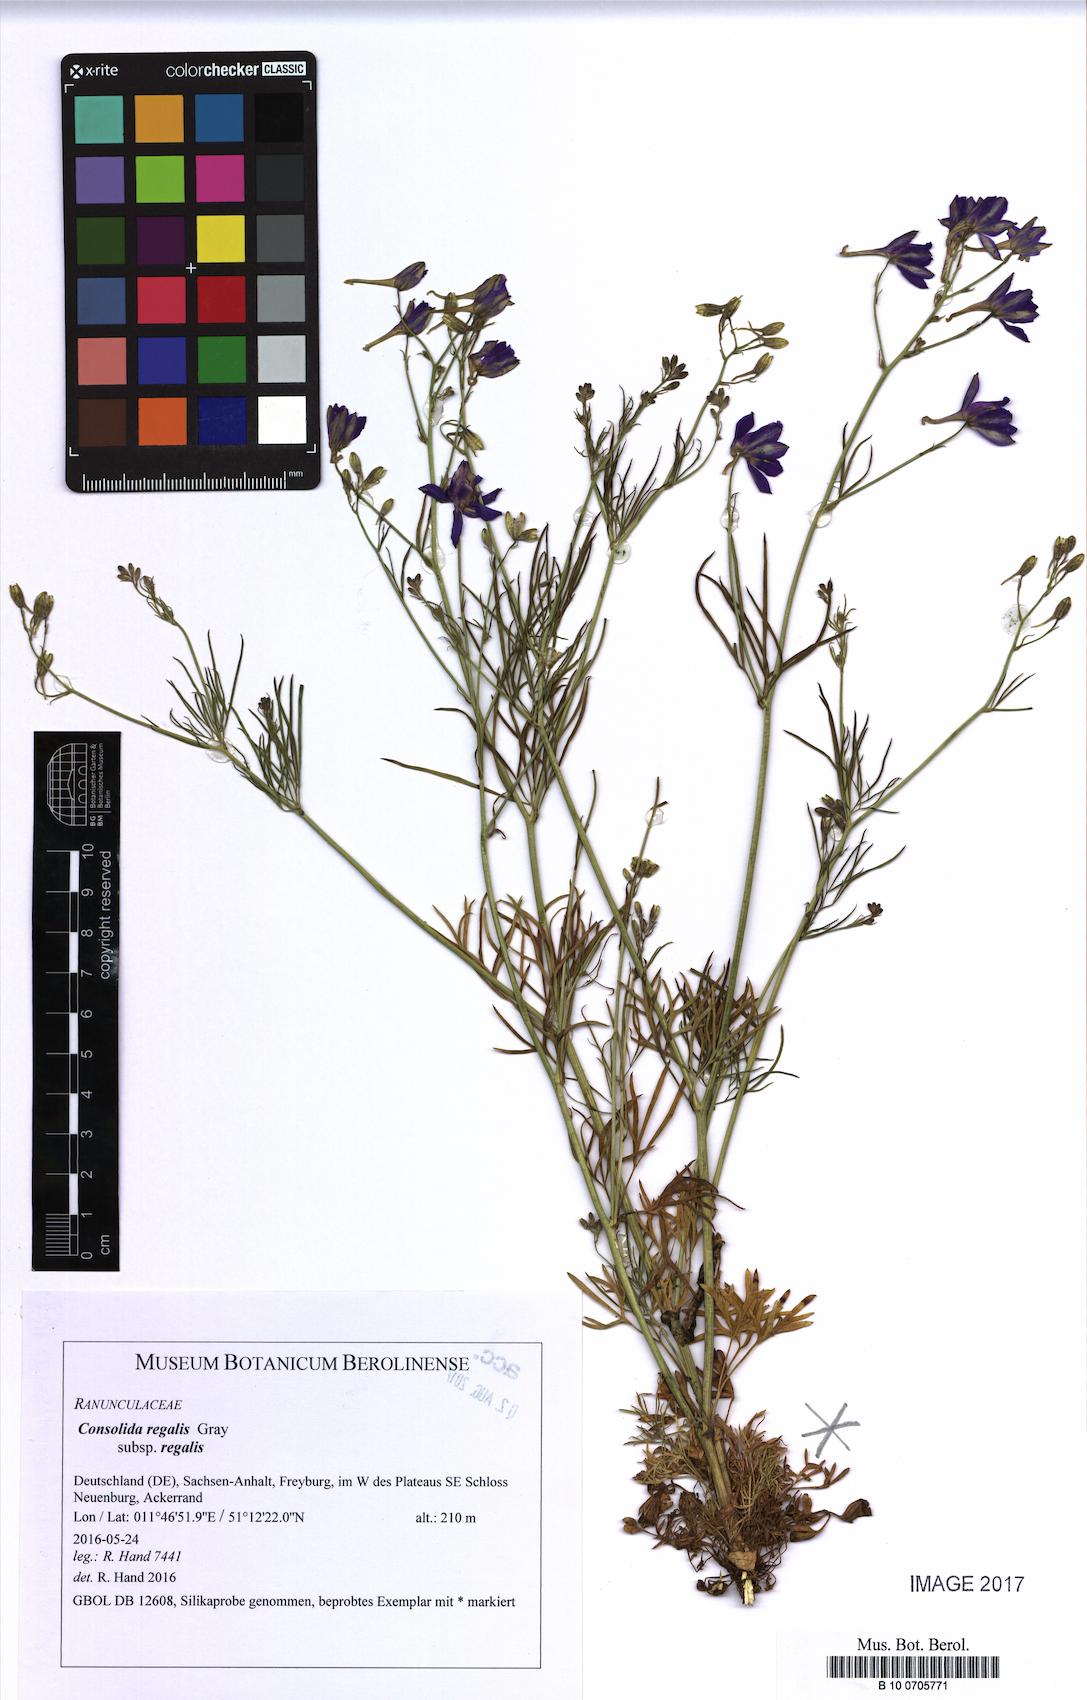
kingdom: Plantae
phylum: Tracheophyta
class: Magnoliopsida
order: Ranunculales
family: Ranunculaceae
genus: Delphinium
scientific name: Delphinium consolida
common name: Branching larkspur
